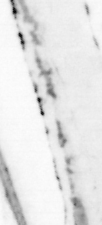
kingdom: Animalia
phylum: Chordata
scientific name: Chordata
